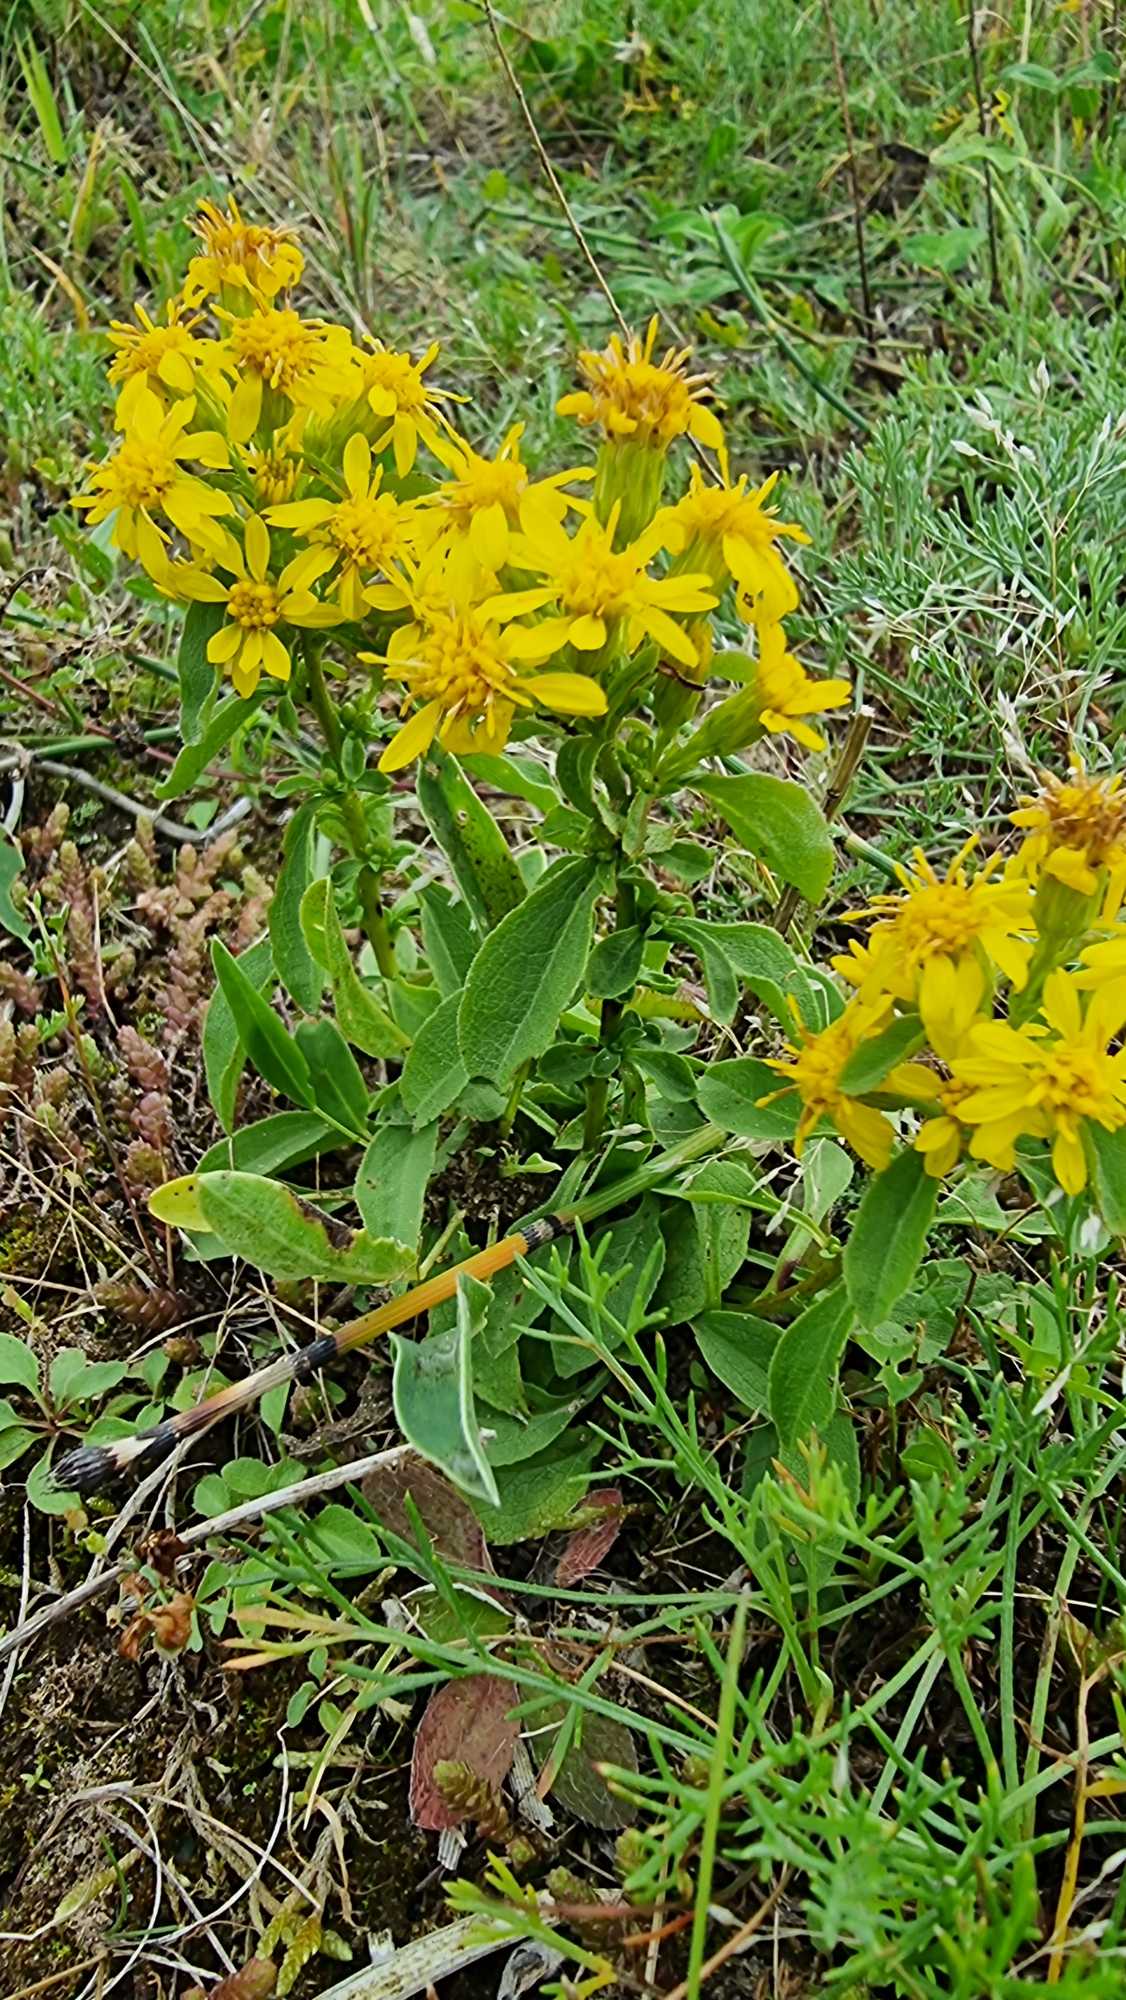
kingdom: Plantae
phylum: Tracheophyta
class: Magnoliopsida
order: Asterales
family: Asteraceae
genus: Solidago
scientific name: Solidago virgaurea
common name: Almindelig gyldenris
